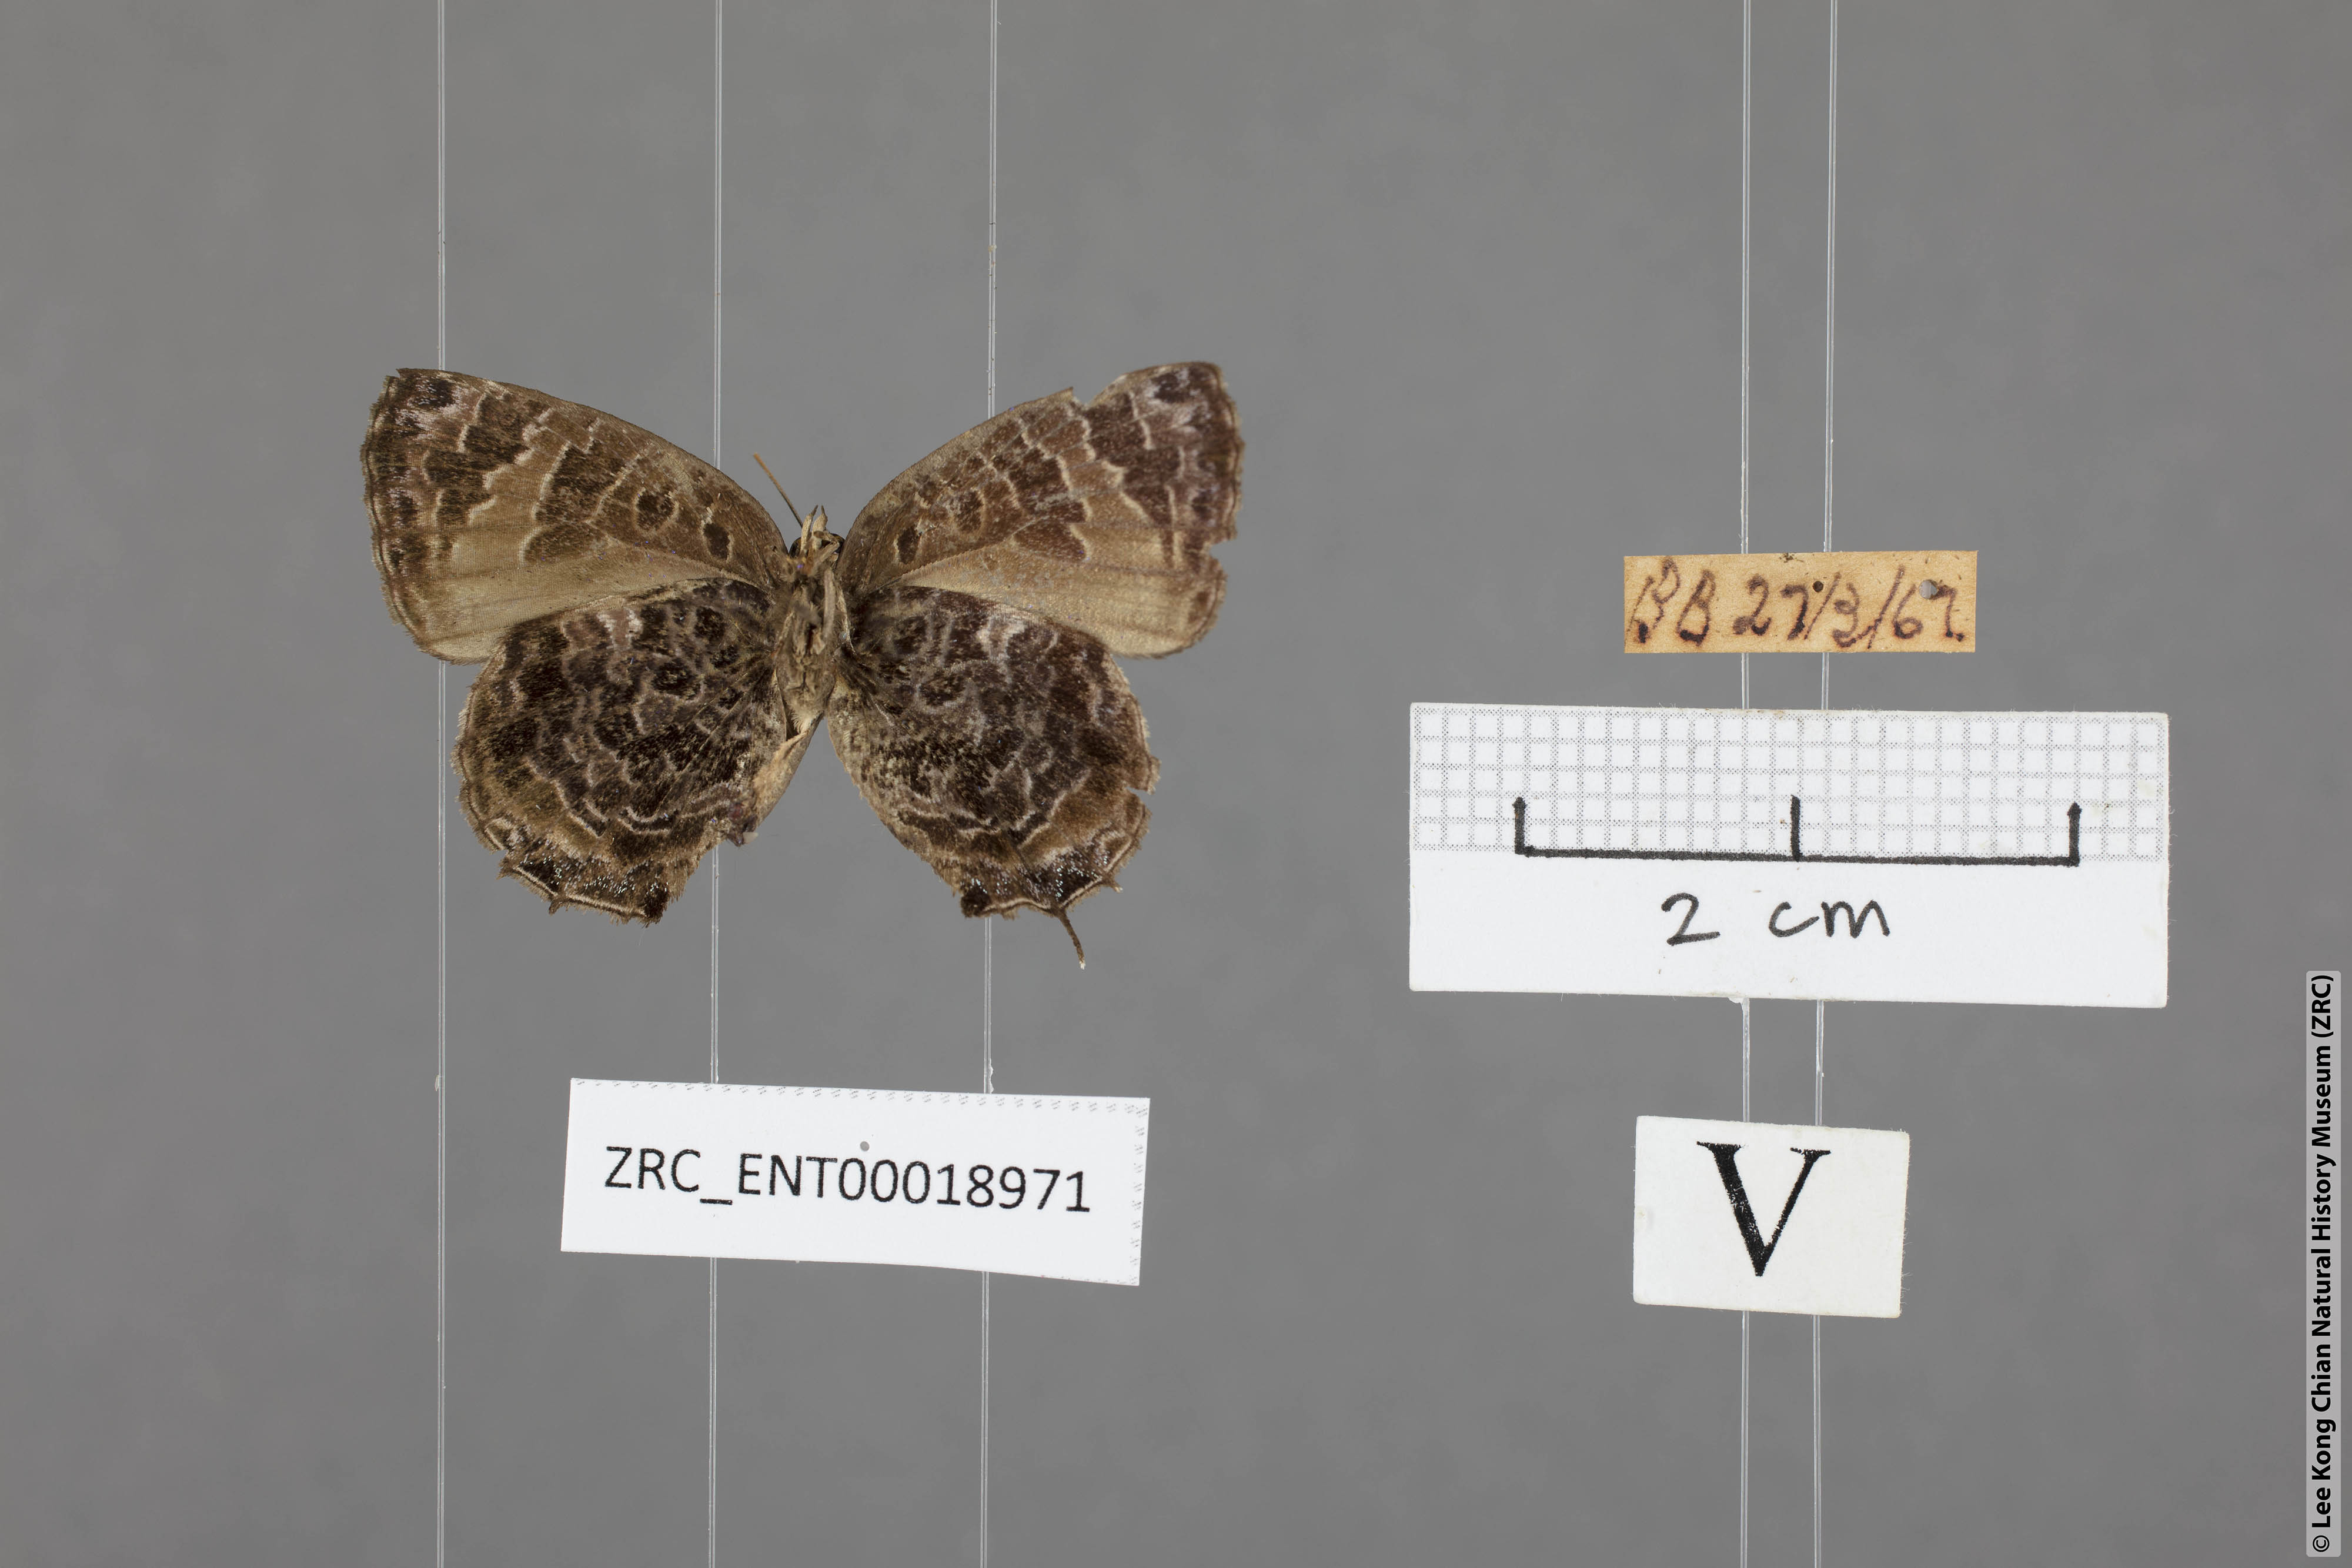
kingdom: Animalia
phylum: Arthropoda
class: Insecta
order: Lepidoptera
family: Lycaenidae
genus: Arhopala
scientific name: Arhopala abseus
